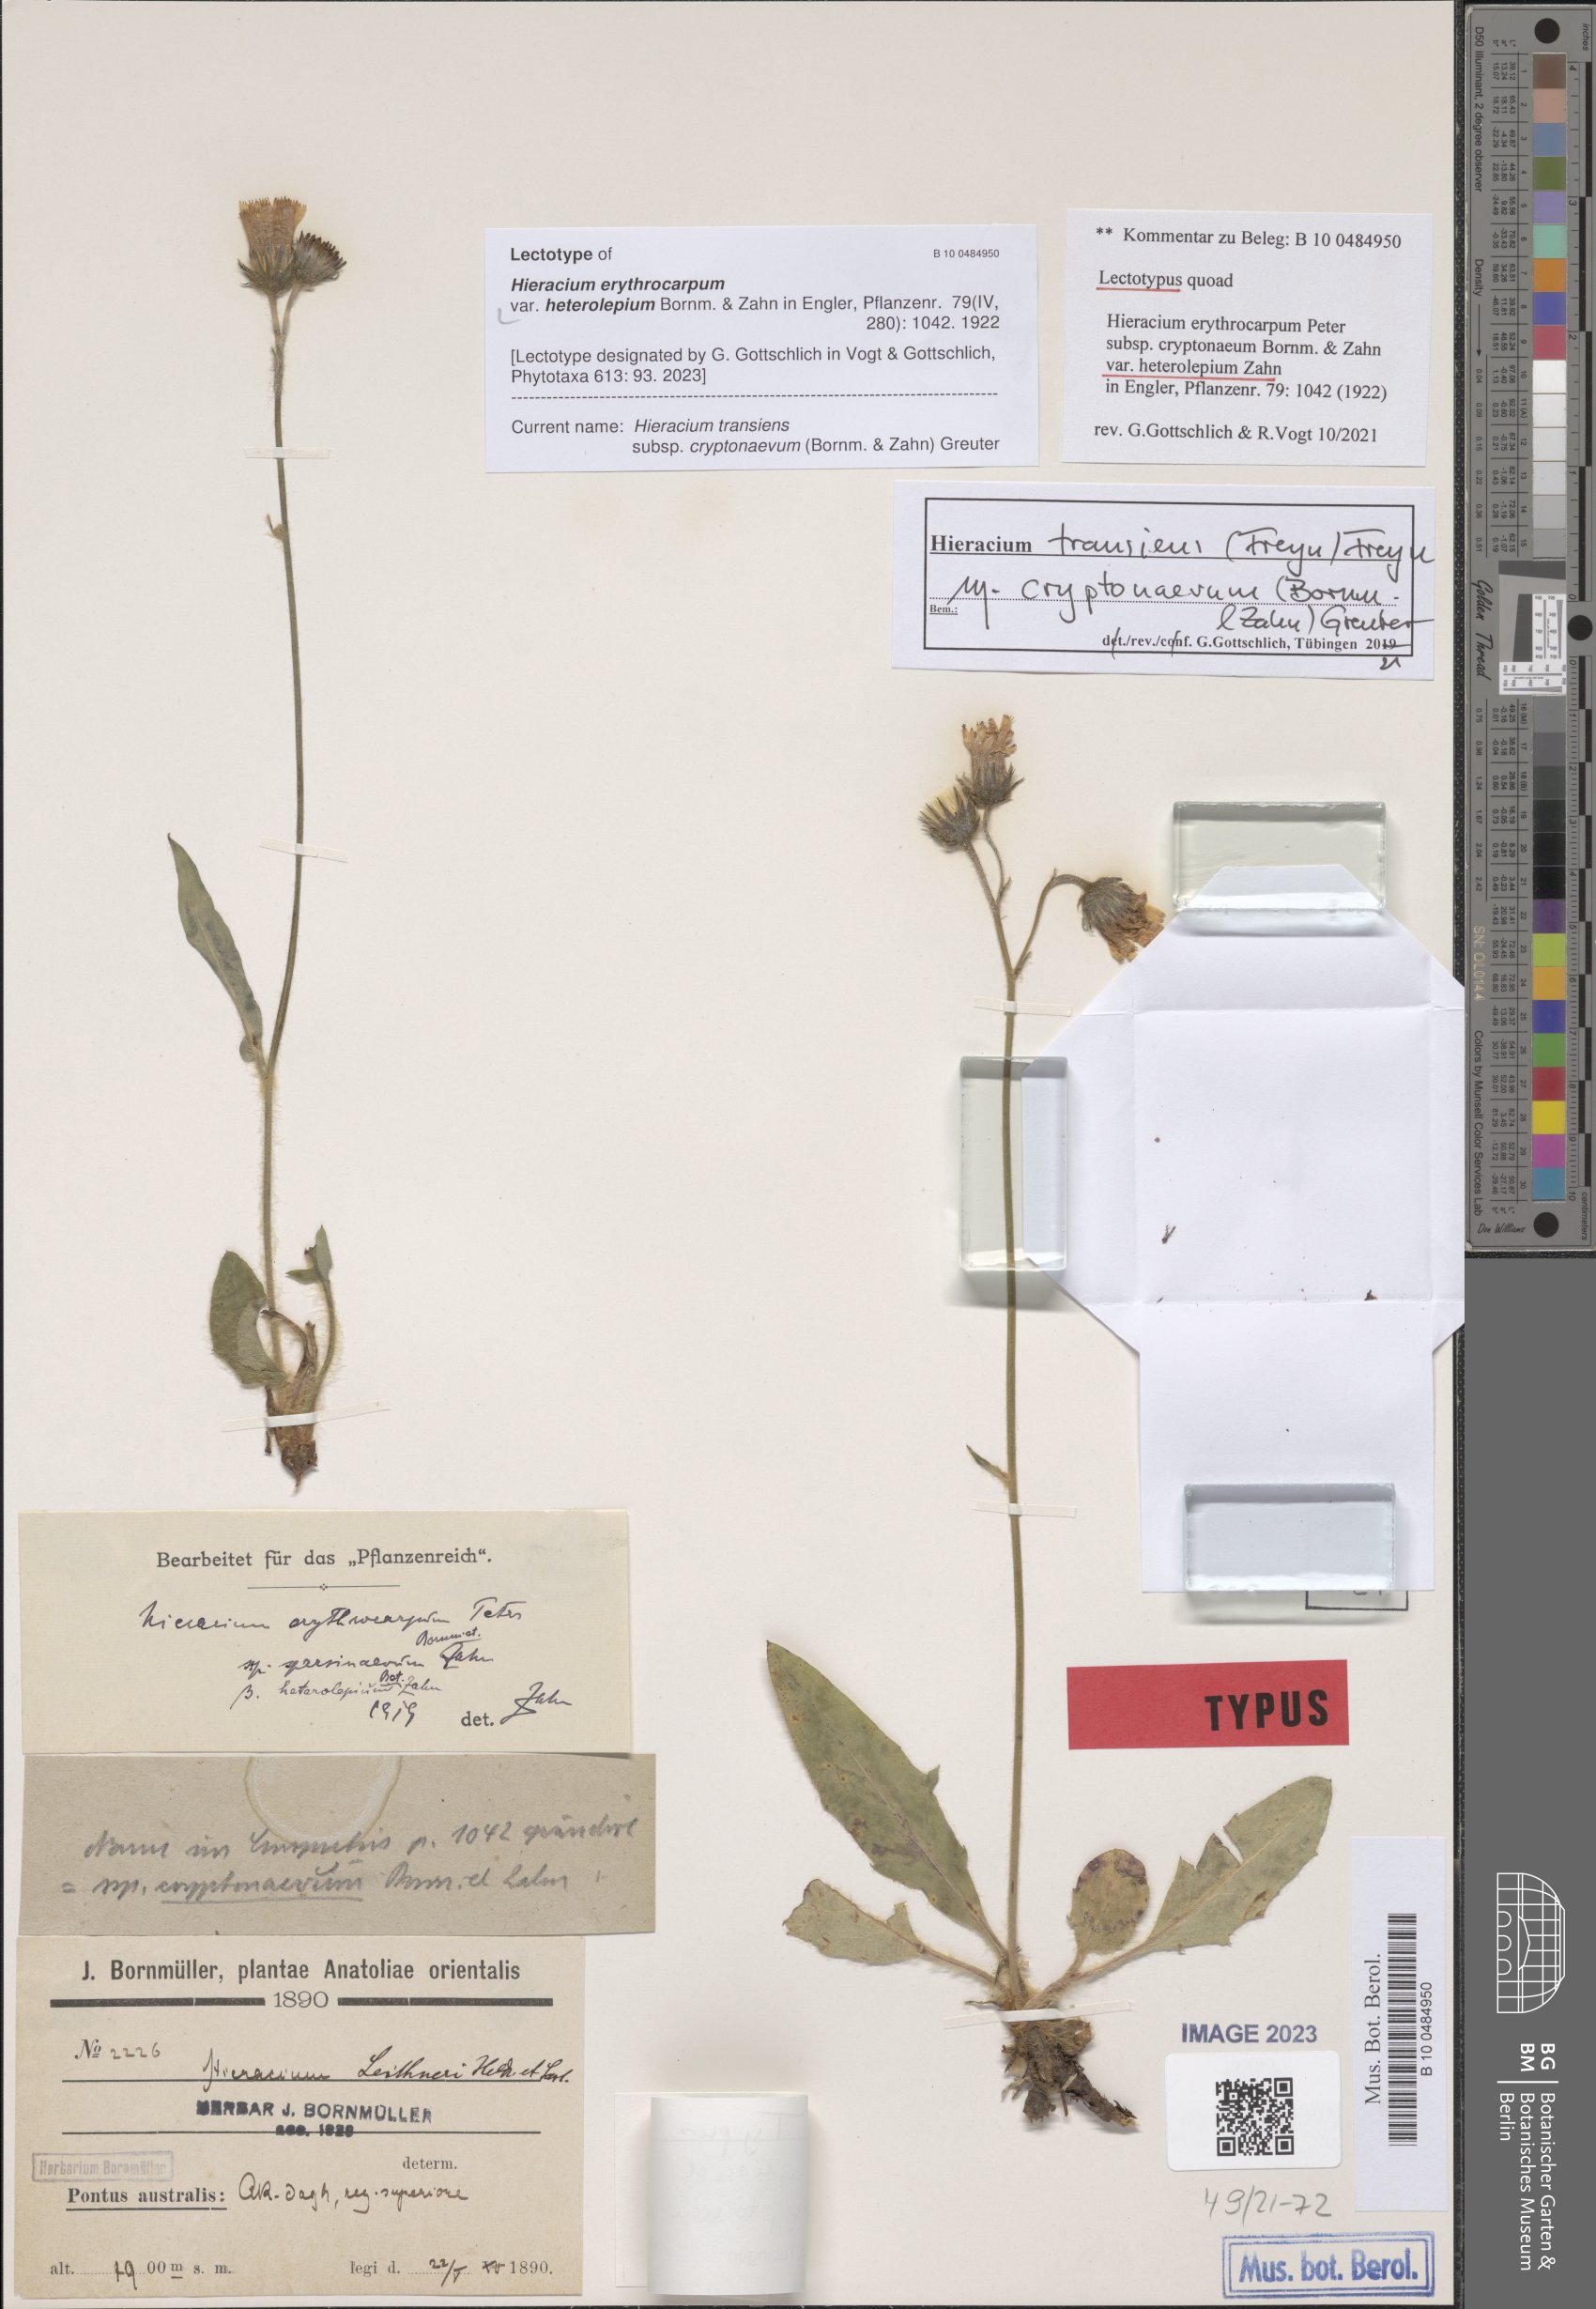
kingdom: Plantae
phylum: Tracheophyta
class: Magnoliopsida
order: Asterales
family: Asteraceae
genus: Hieracium
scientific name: Hieracium transiens
